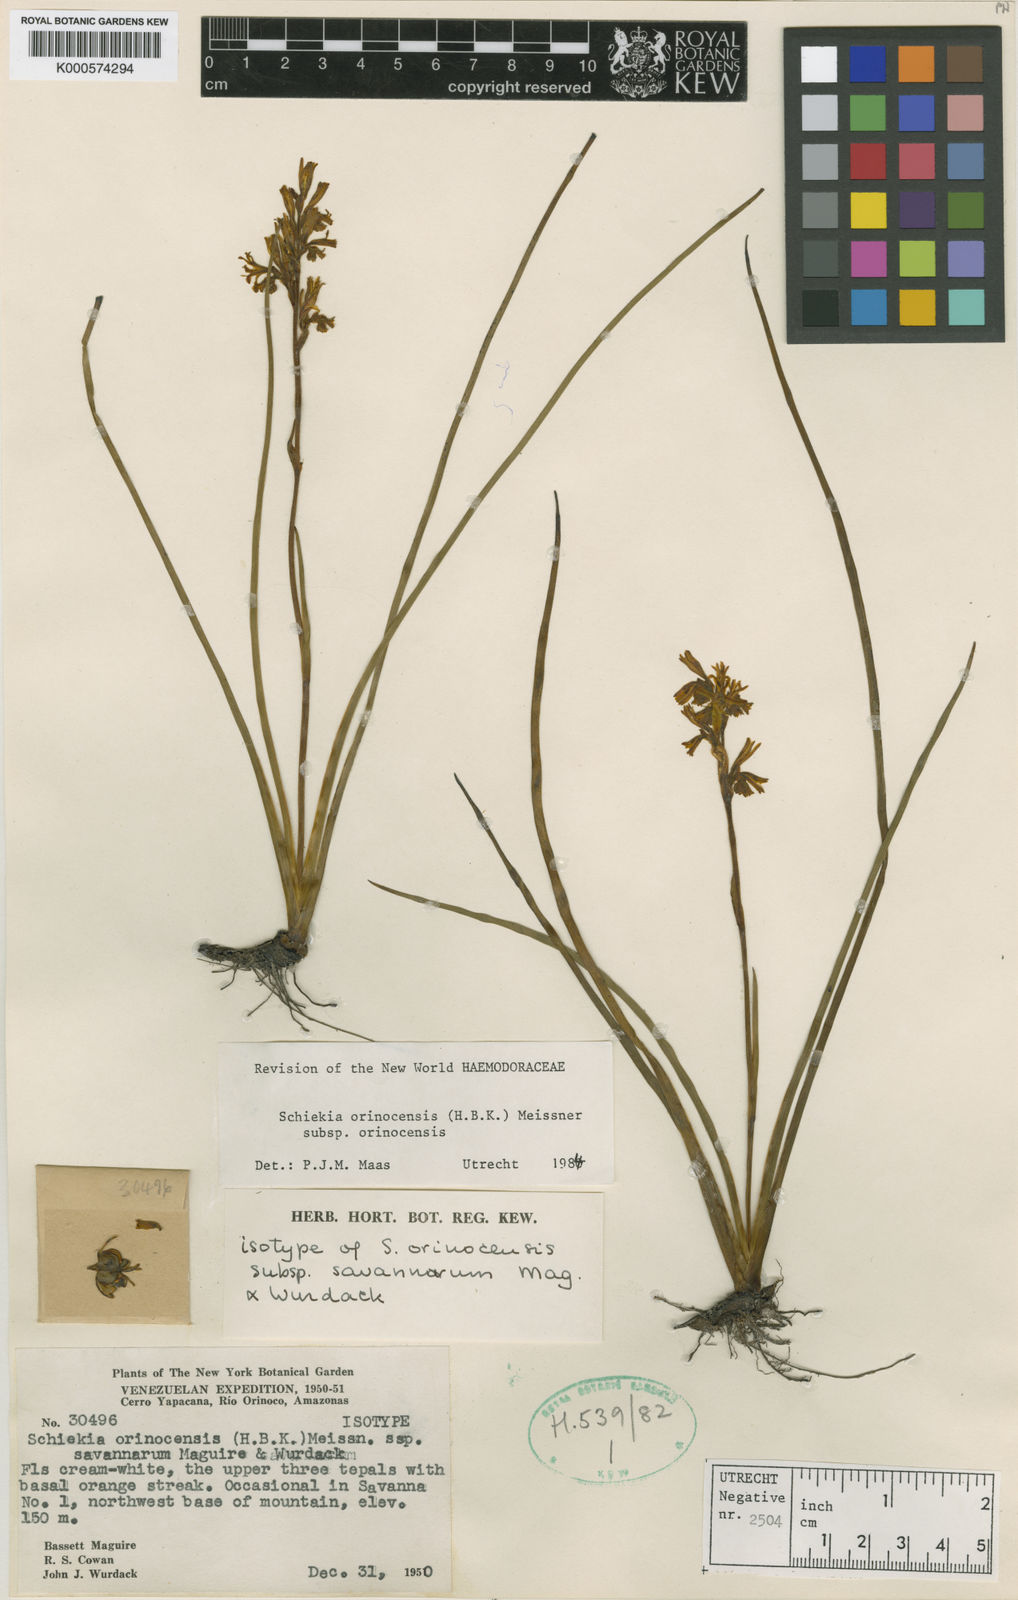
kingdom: Plantae
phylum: Tracheophyta
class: Liliopsida
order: Commelinales
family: Haemodoraceae
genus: Schiekia
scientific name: Schiekia orinocensis
